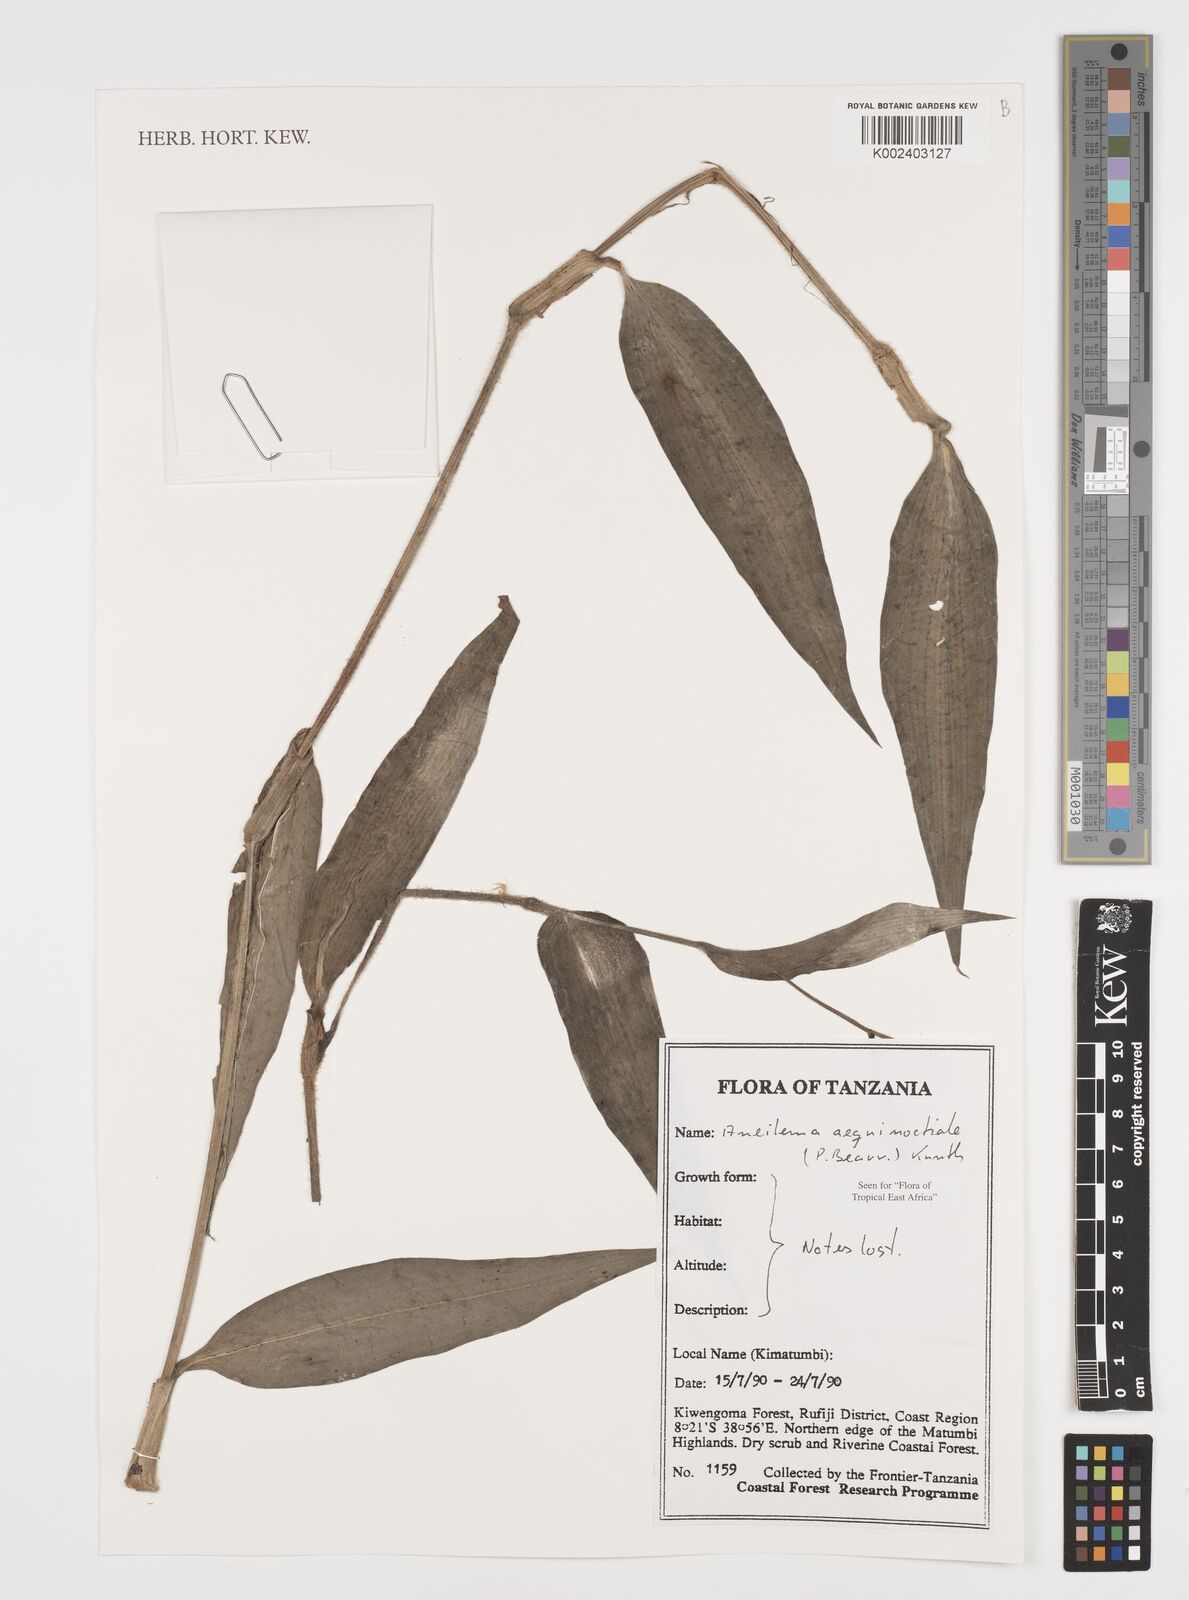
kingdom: Plantae
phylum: Tracheophyta
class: Liliopsida
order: Commelinales
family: Commelinaceae
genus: Aneilema
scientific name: Aneilema aequinoctiale
